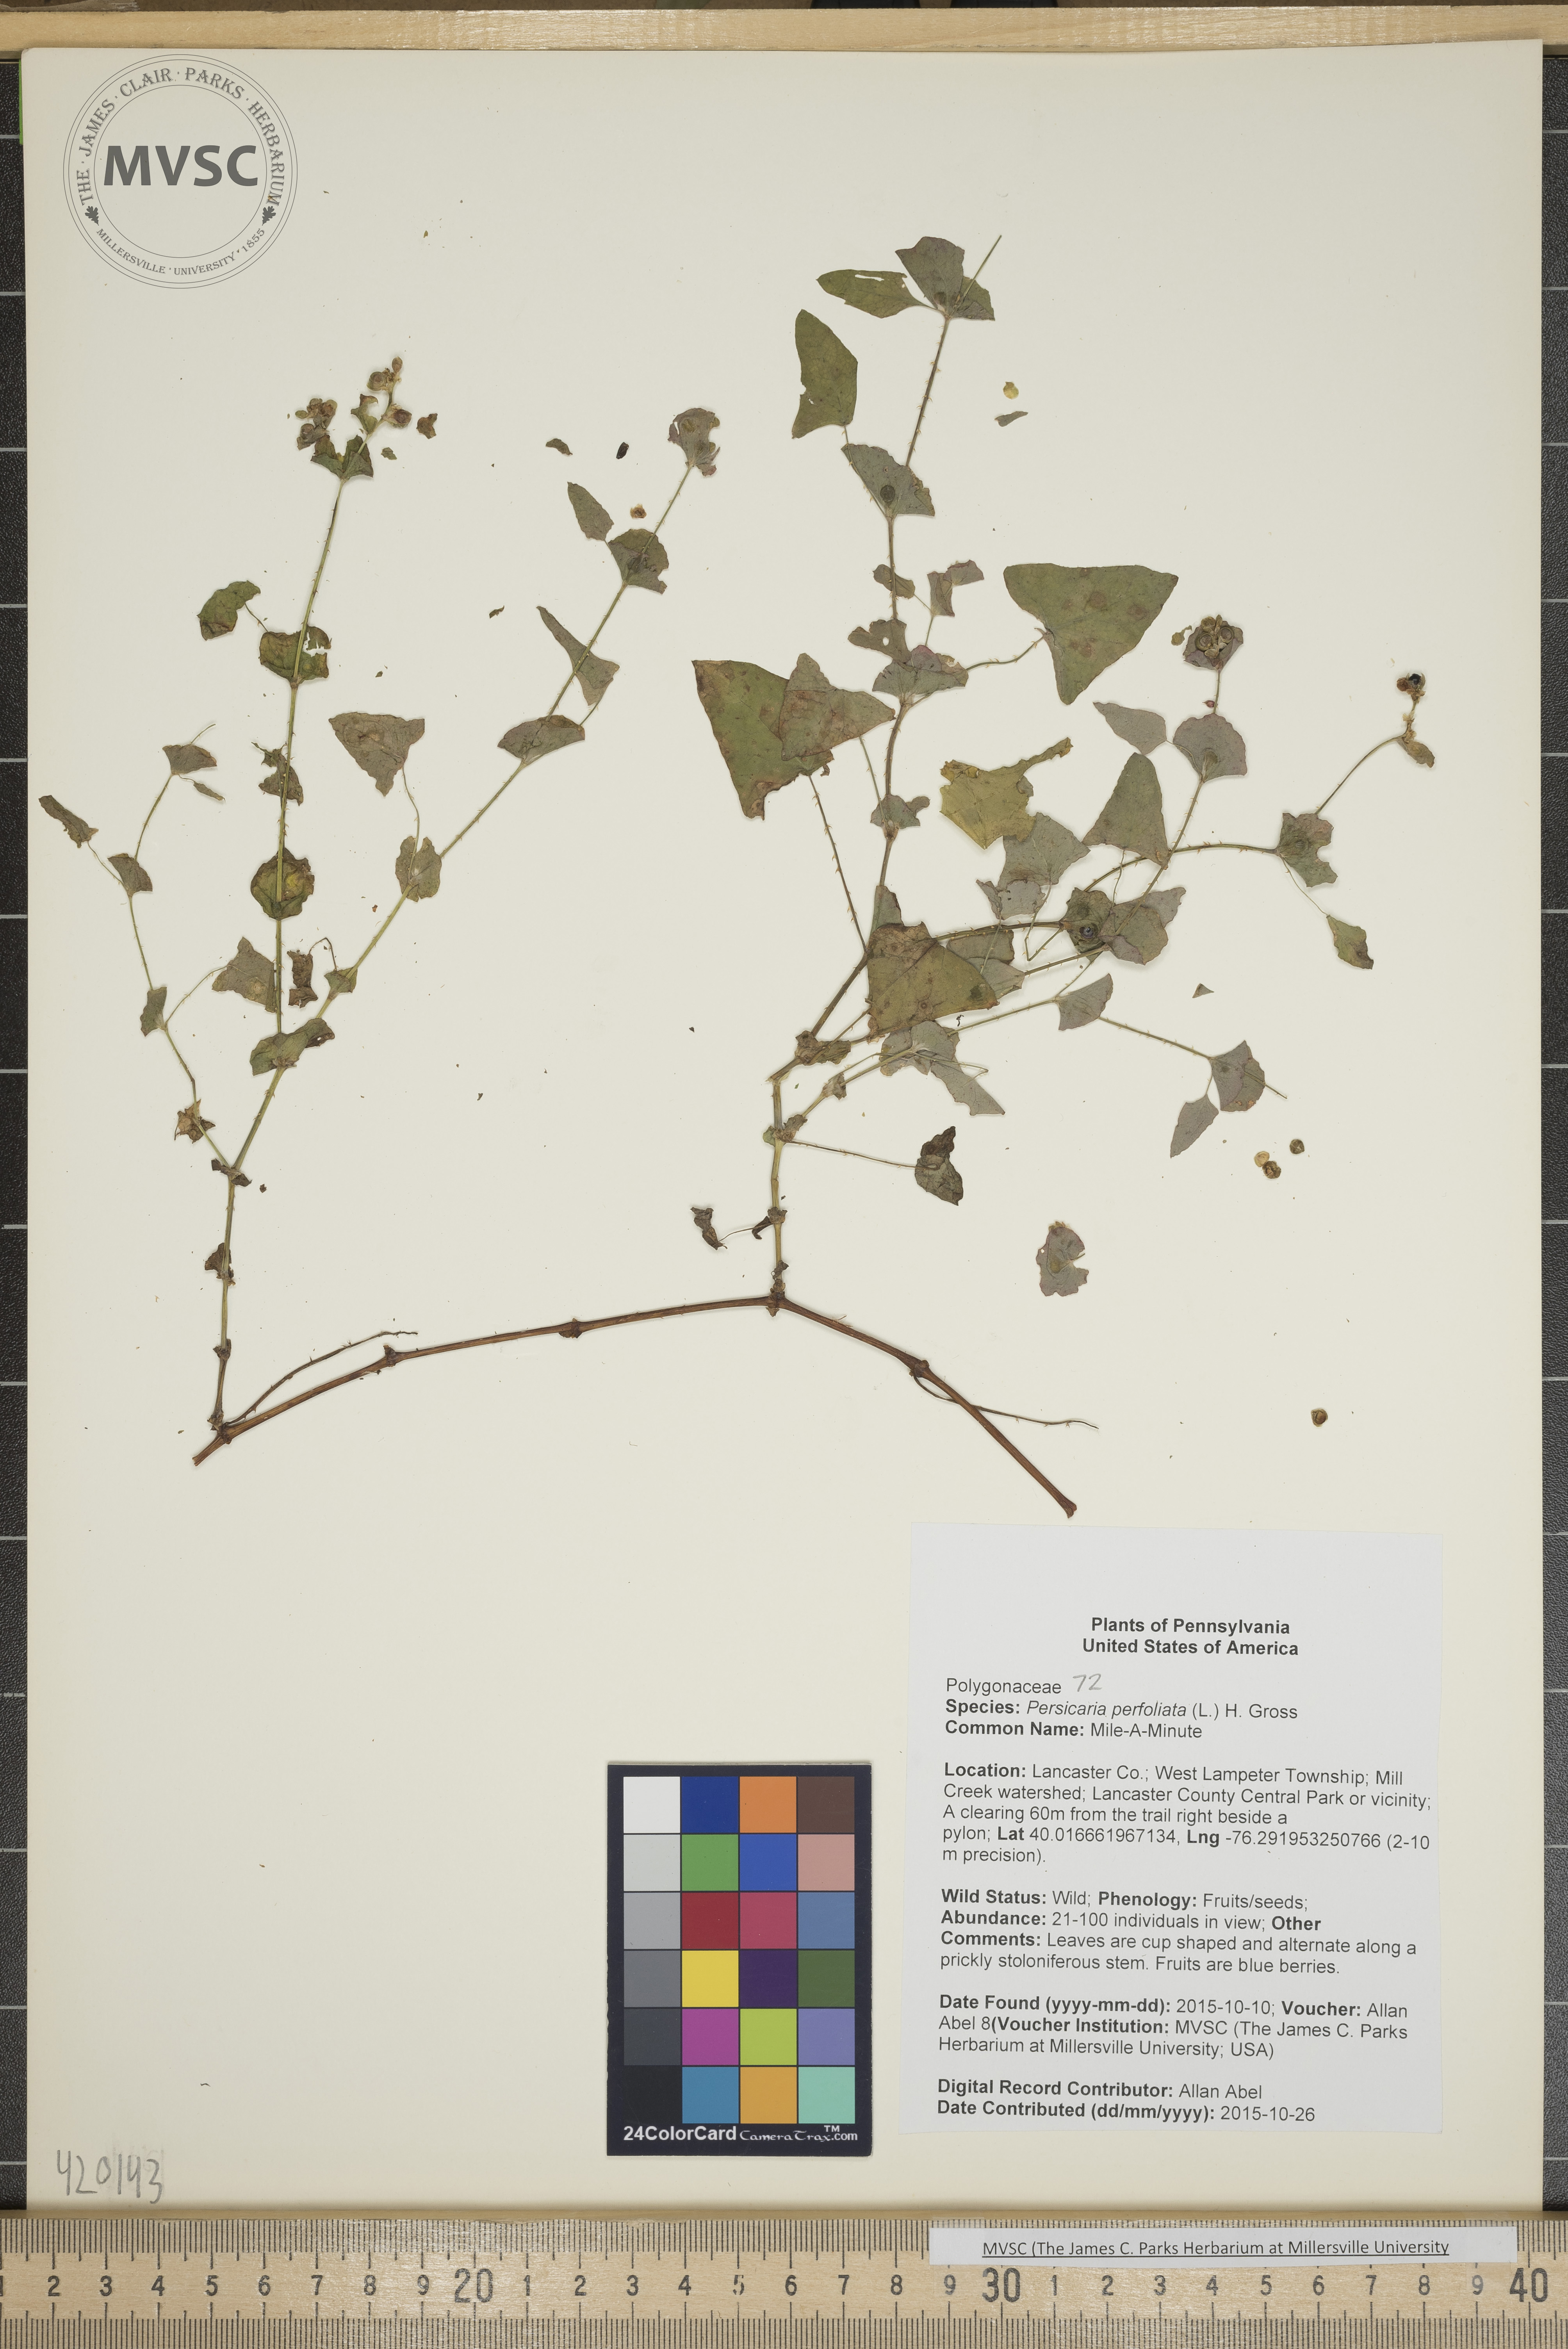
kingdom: Plantae
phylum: Tracheophyta
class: Magnoliopsida
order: Caryophyllales
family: Polygonaceae
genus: Persicaria
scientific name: Persicaria perfoliata
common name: Mile-A-Minute
